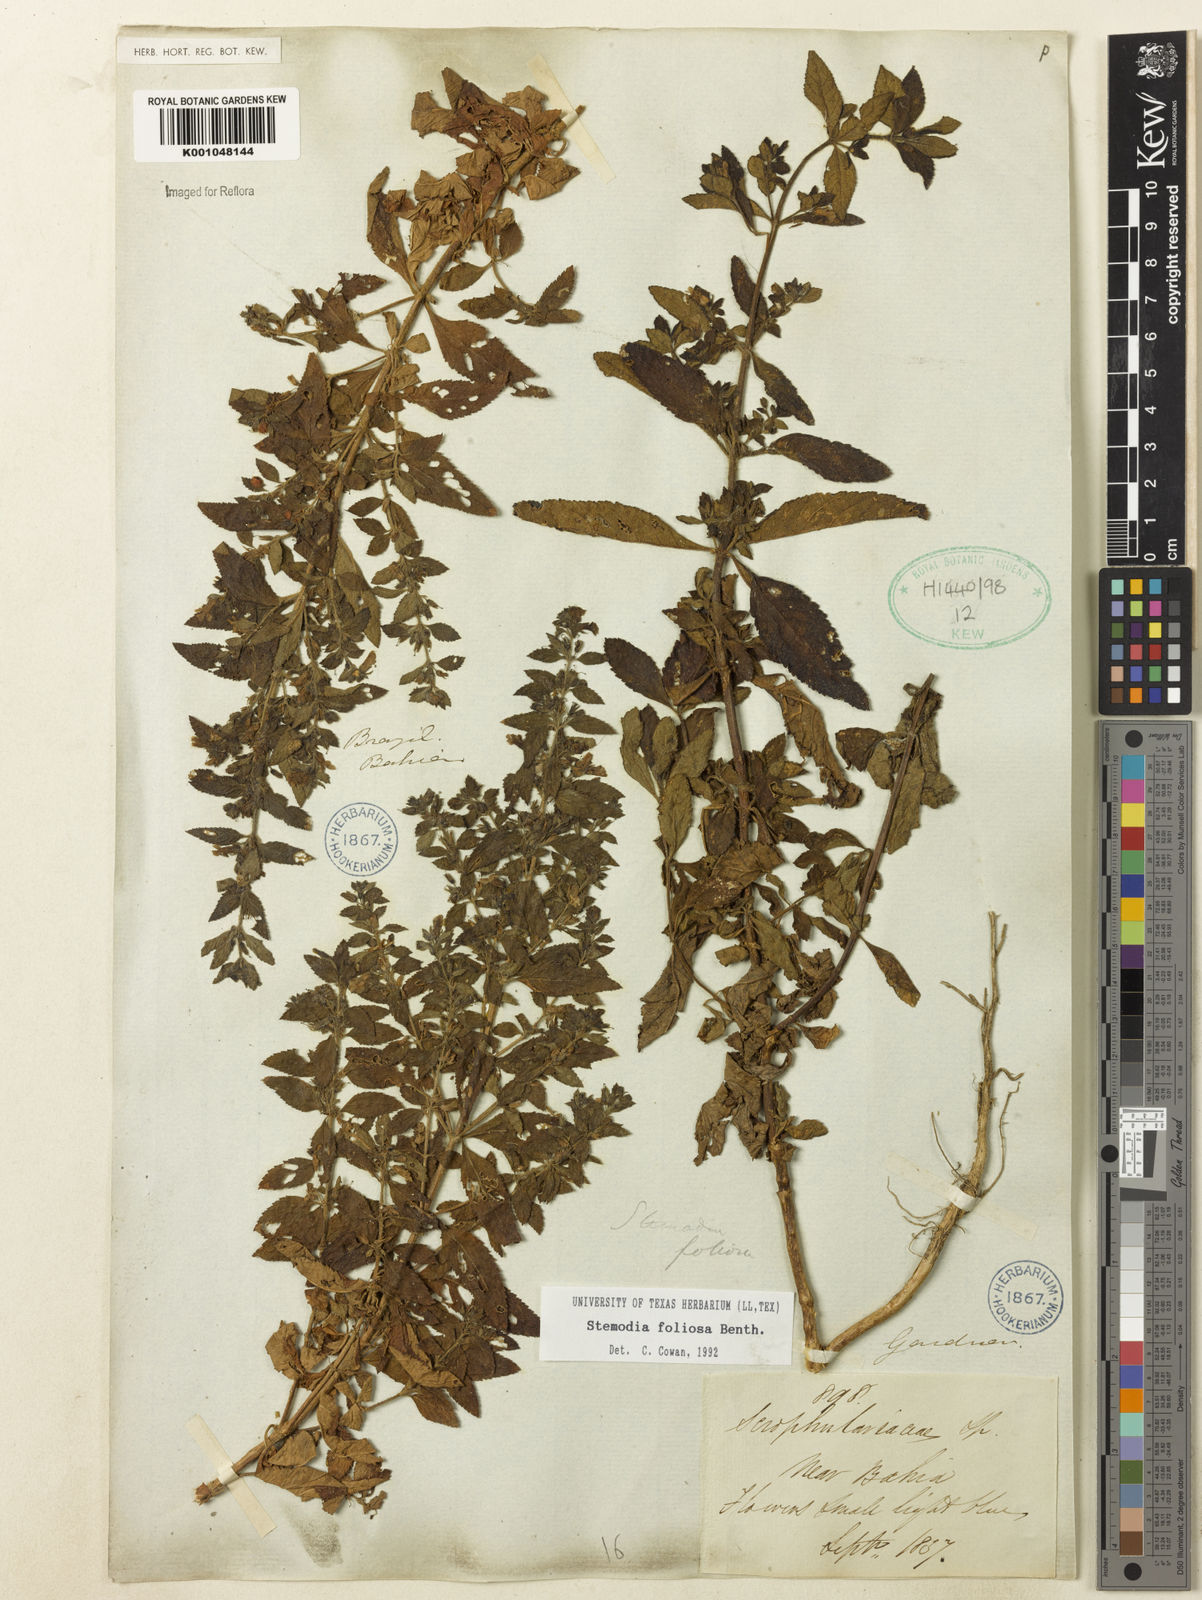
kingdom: Plantae
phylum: Tracheophyta
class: Magnoliopsida
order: Lamiales
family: Plantaginaceae
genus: Stemodia
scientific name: Stemodia foliosa
